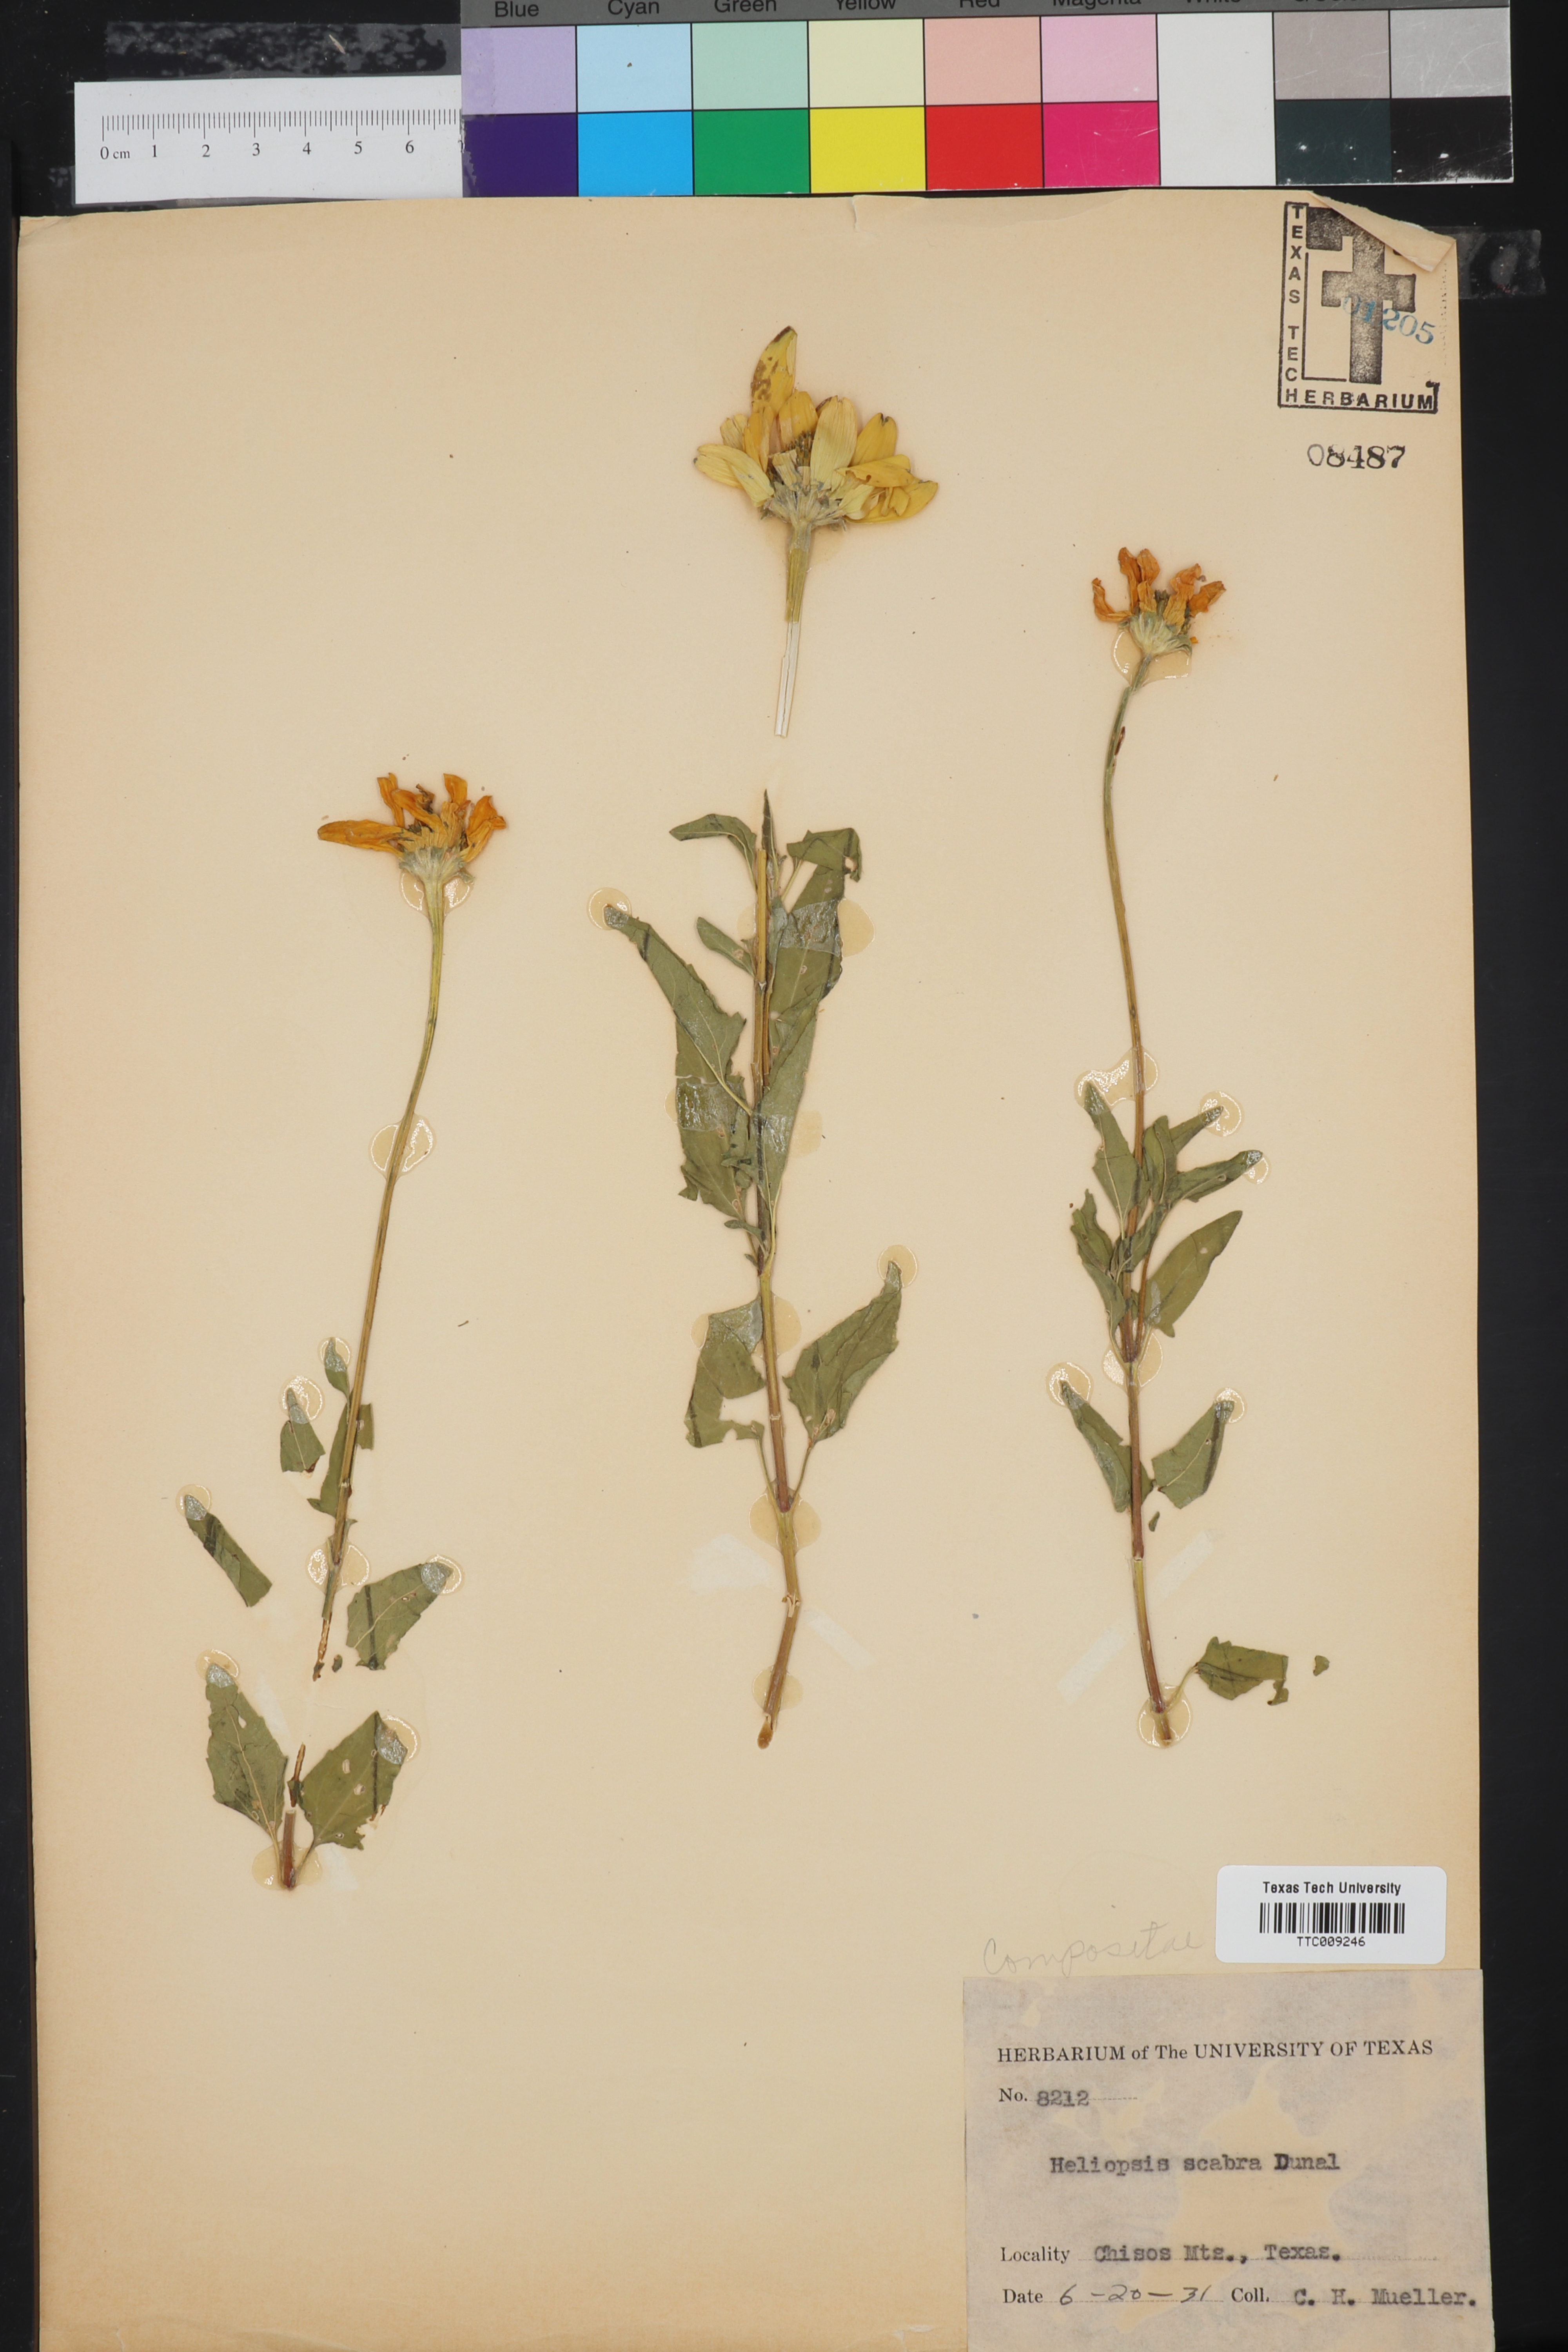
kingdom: Plantae
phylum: Tracheophyta
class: Magnoliopsida
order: Asterales
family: Asteraceae
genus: Heliopsis
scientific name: Heliopsis helianthoides
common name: False sunflower
